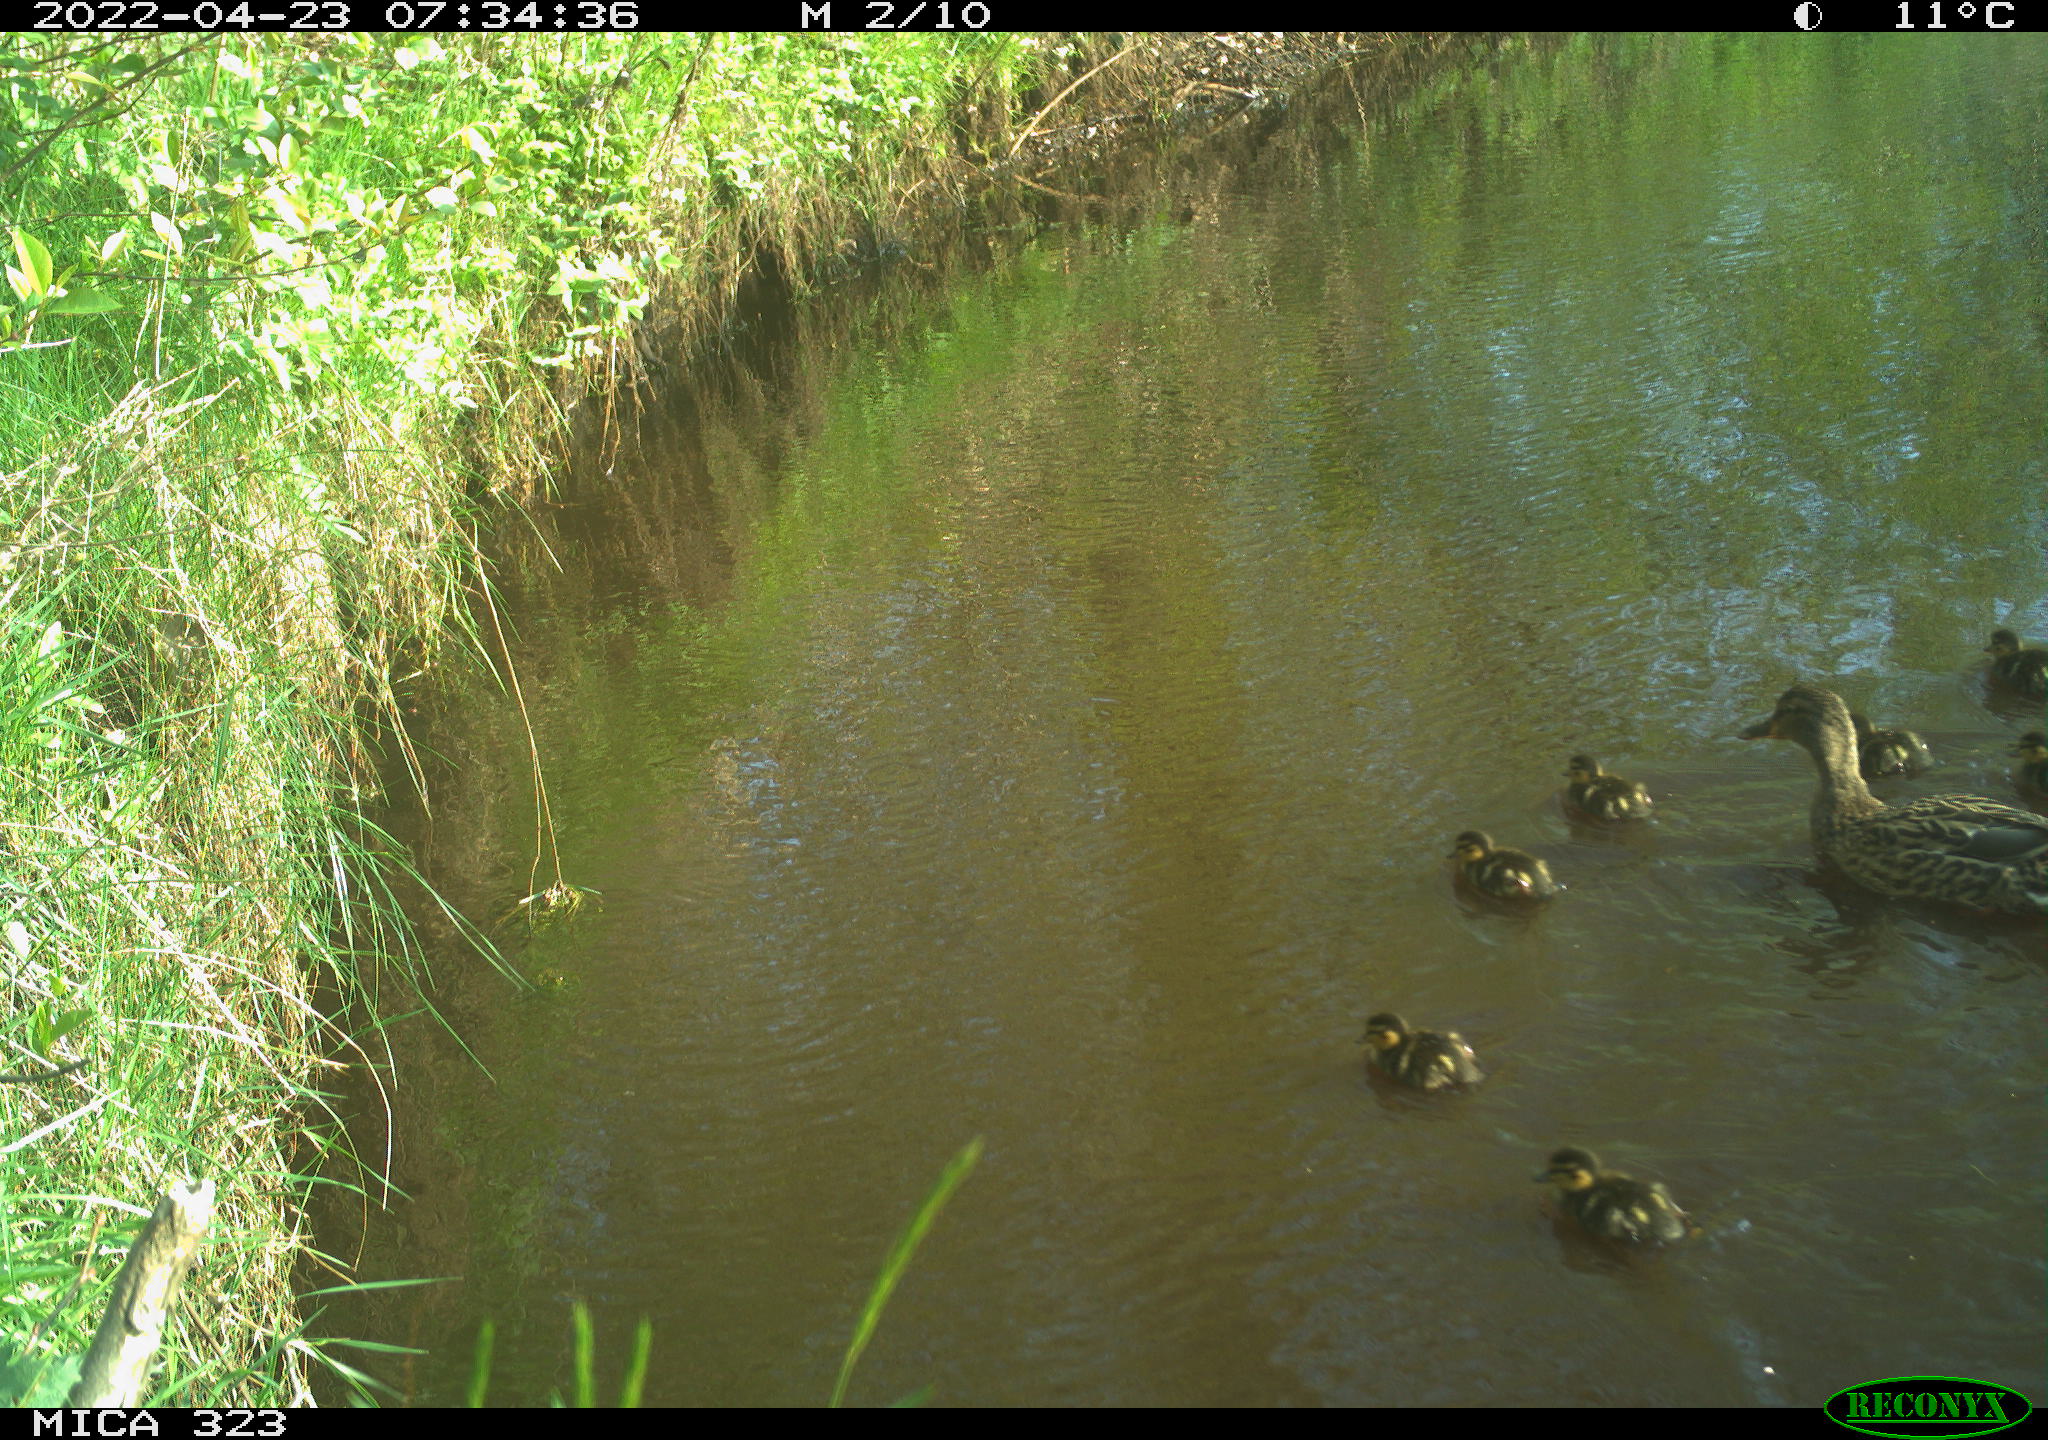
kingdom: Animalia
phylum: Chordata
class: Aves
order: Anseriformes
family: Anatidae
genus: Anas
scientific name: Anas platyrhynchos
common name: Mallard
